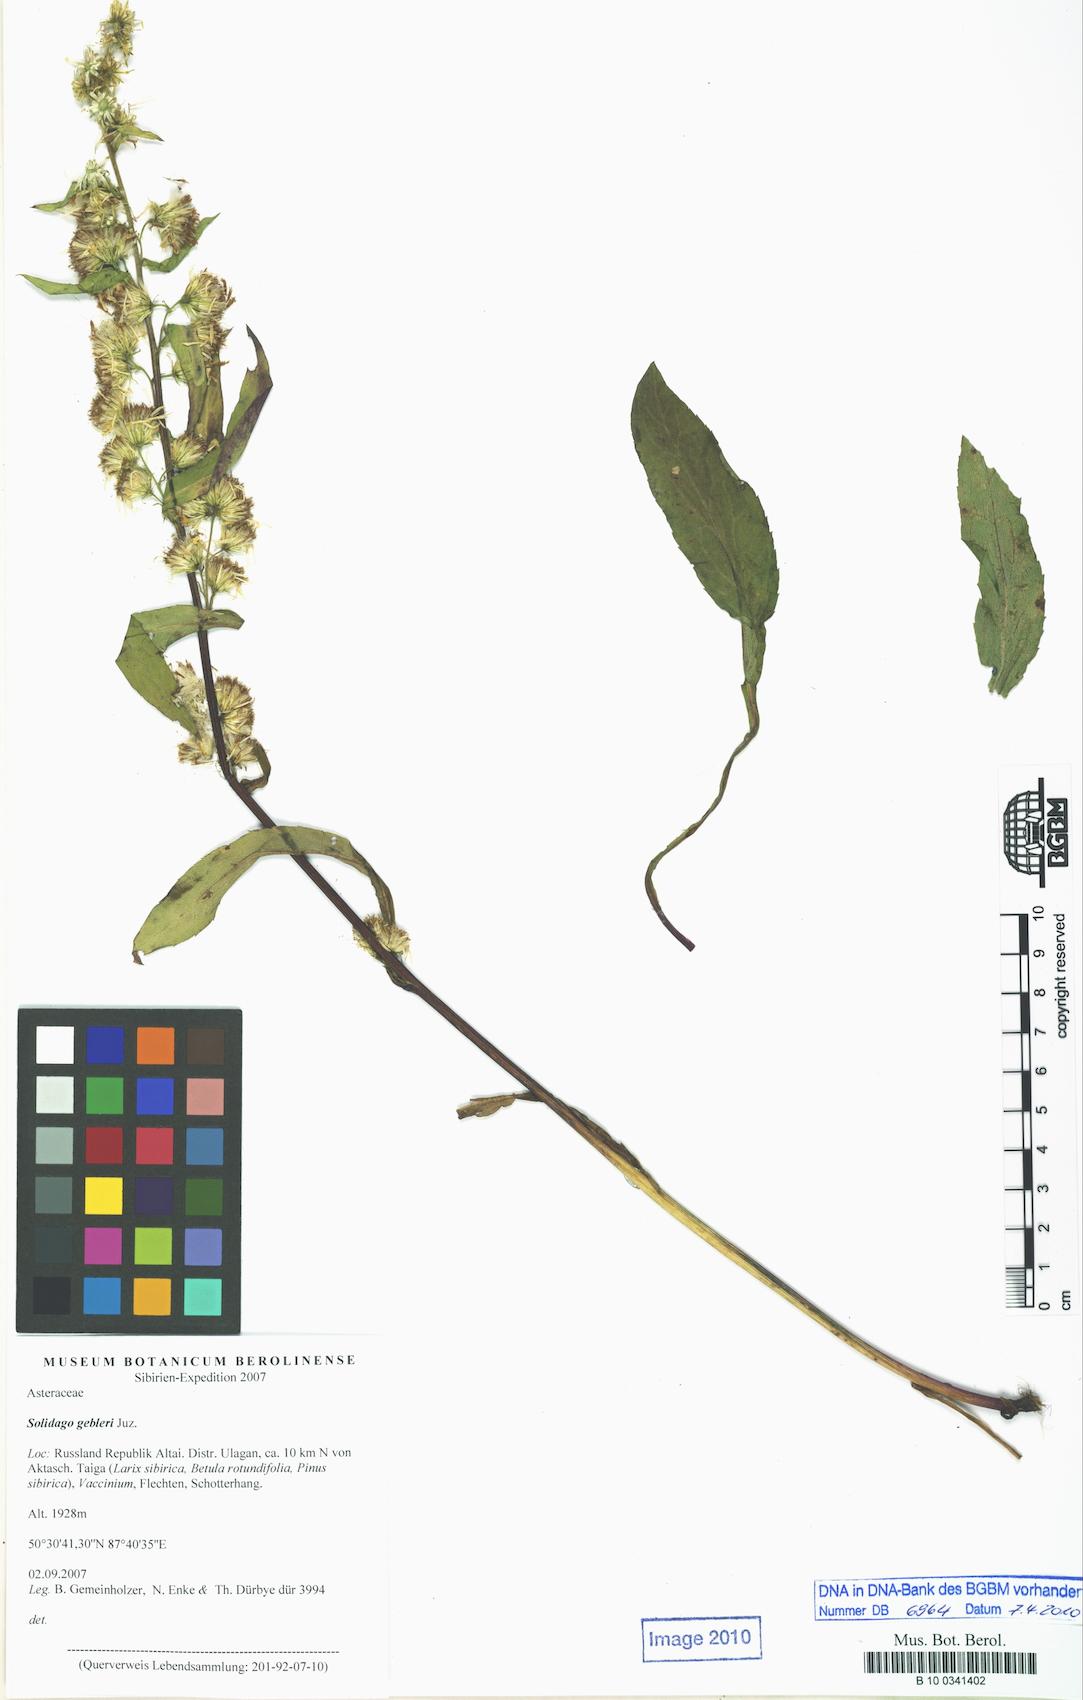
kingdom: Plantae
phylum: Tracheophyta
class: Magnoliopsida
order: Asterales
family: Asteraceae
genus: Solidago
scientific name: Solidago dahurica
